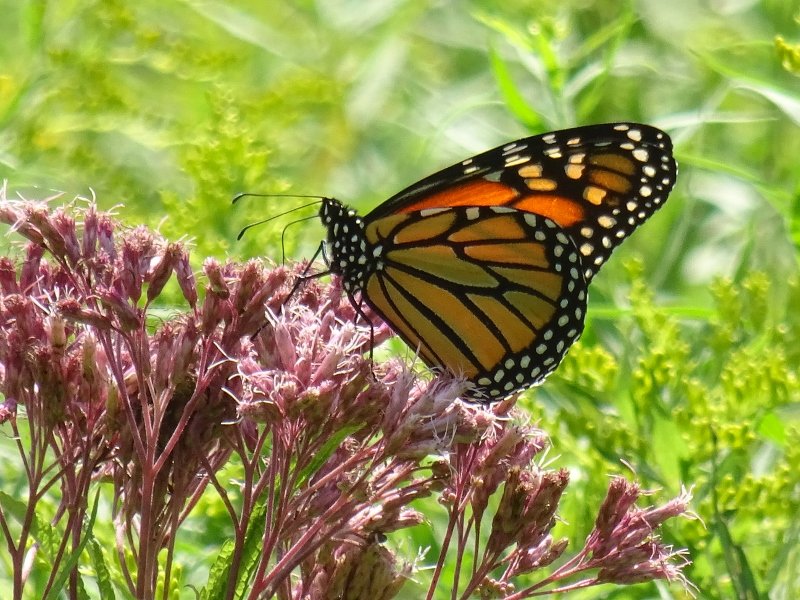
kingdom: Animalia
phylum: Arthropoda
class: Insecta
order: Lepidoptera
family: Nymphalidae
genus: Danaus
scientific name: Danaus plexippus
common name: Monarch
